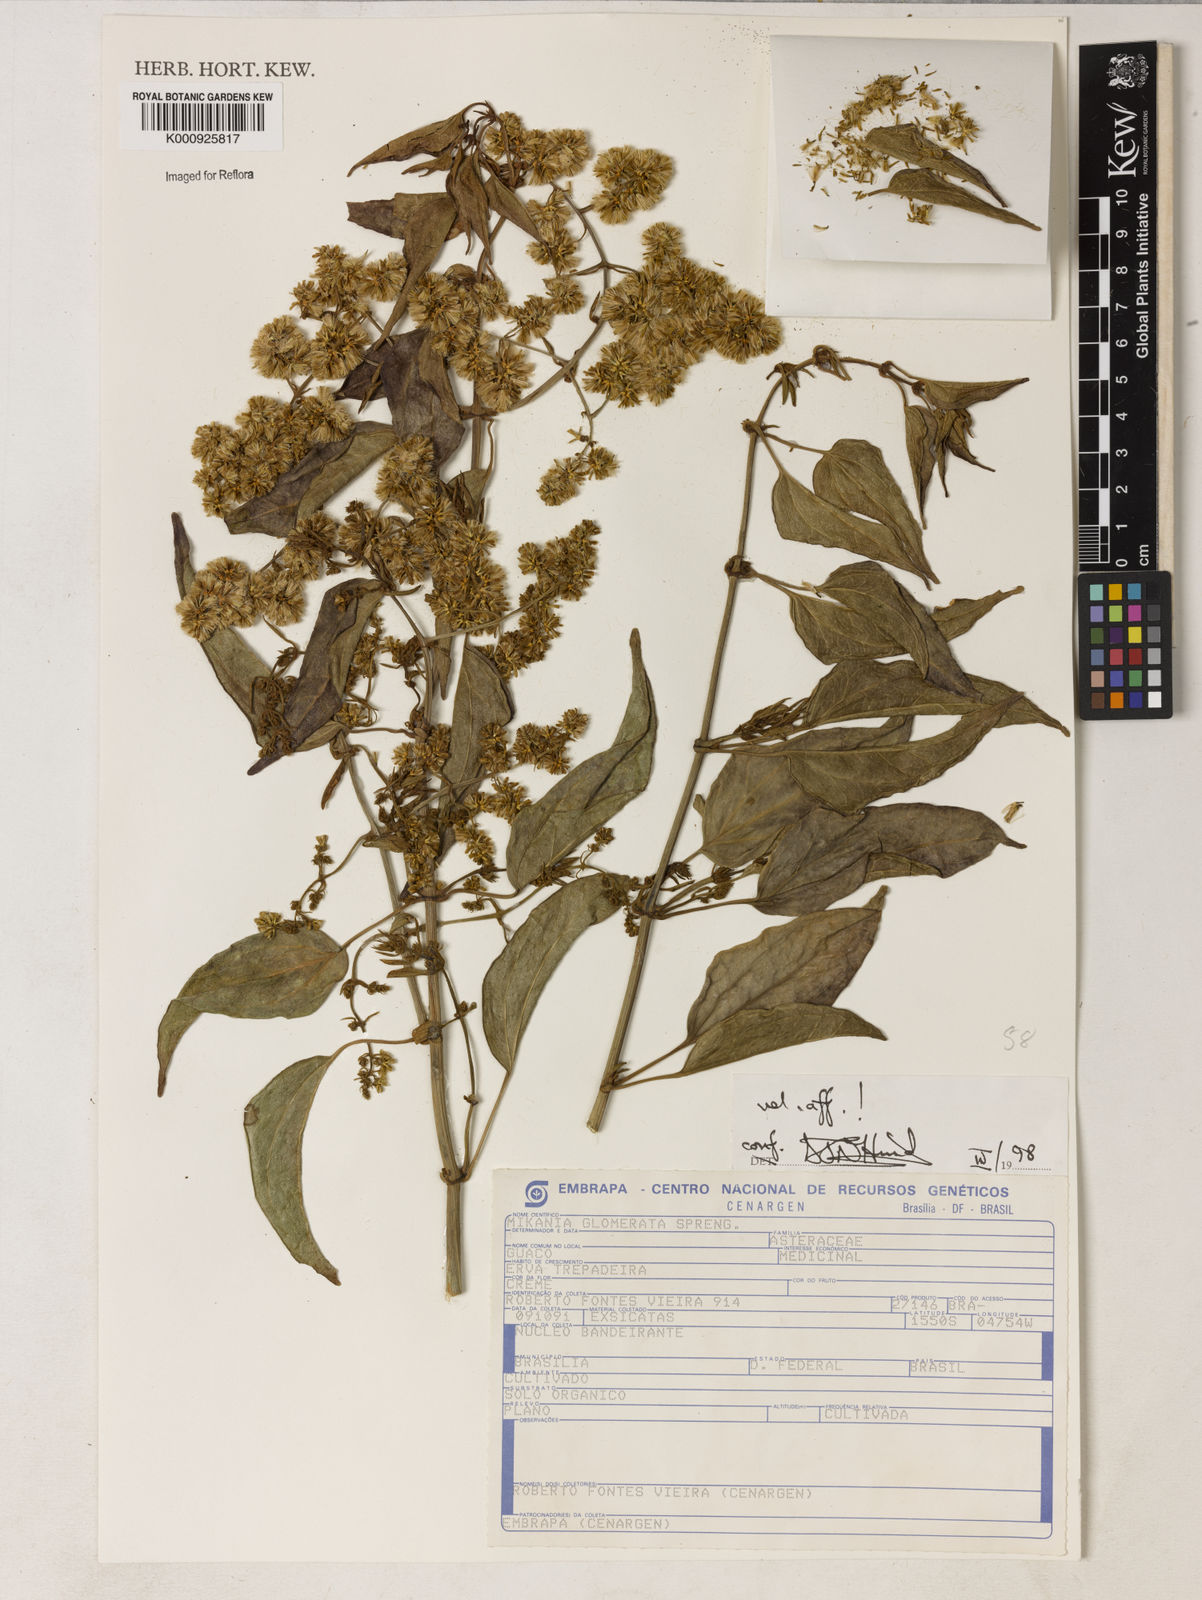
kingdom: Plantae
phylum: Tracheophyta
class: Magnoliopsida
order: Asterales
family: Asteraceae
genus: Mikania
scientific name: Mikania glomerata
